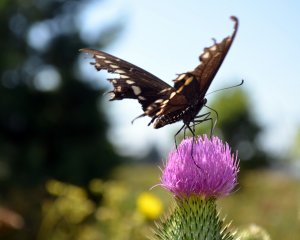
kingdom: Animalia
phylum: Arthropoda
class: Insecta
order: Lepidoptera
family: Papilionidae
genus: Papilio
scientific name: Papilio polyxenes
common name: Black Swallowtail
